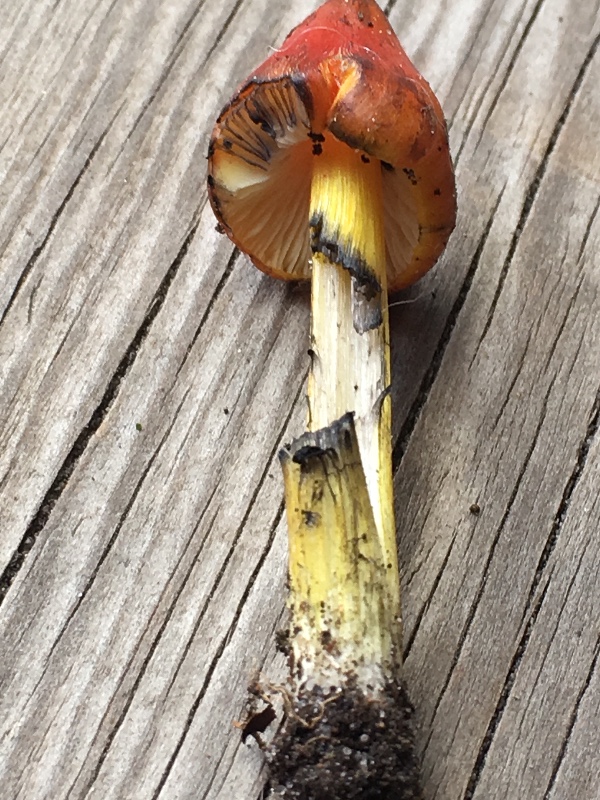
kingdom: Fungi
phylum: Basidiomycota
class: Agaricomycetes
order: Agaricales
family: Hygrophoraceae
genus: Hygrocybe
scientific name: Hygrocybe conica
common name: kegle-vokshat
